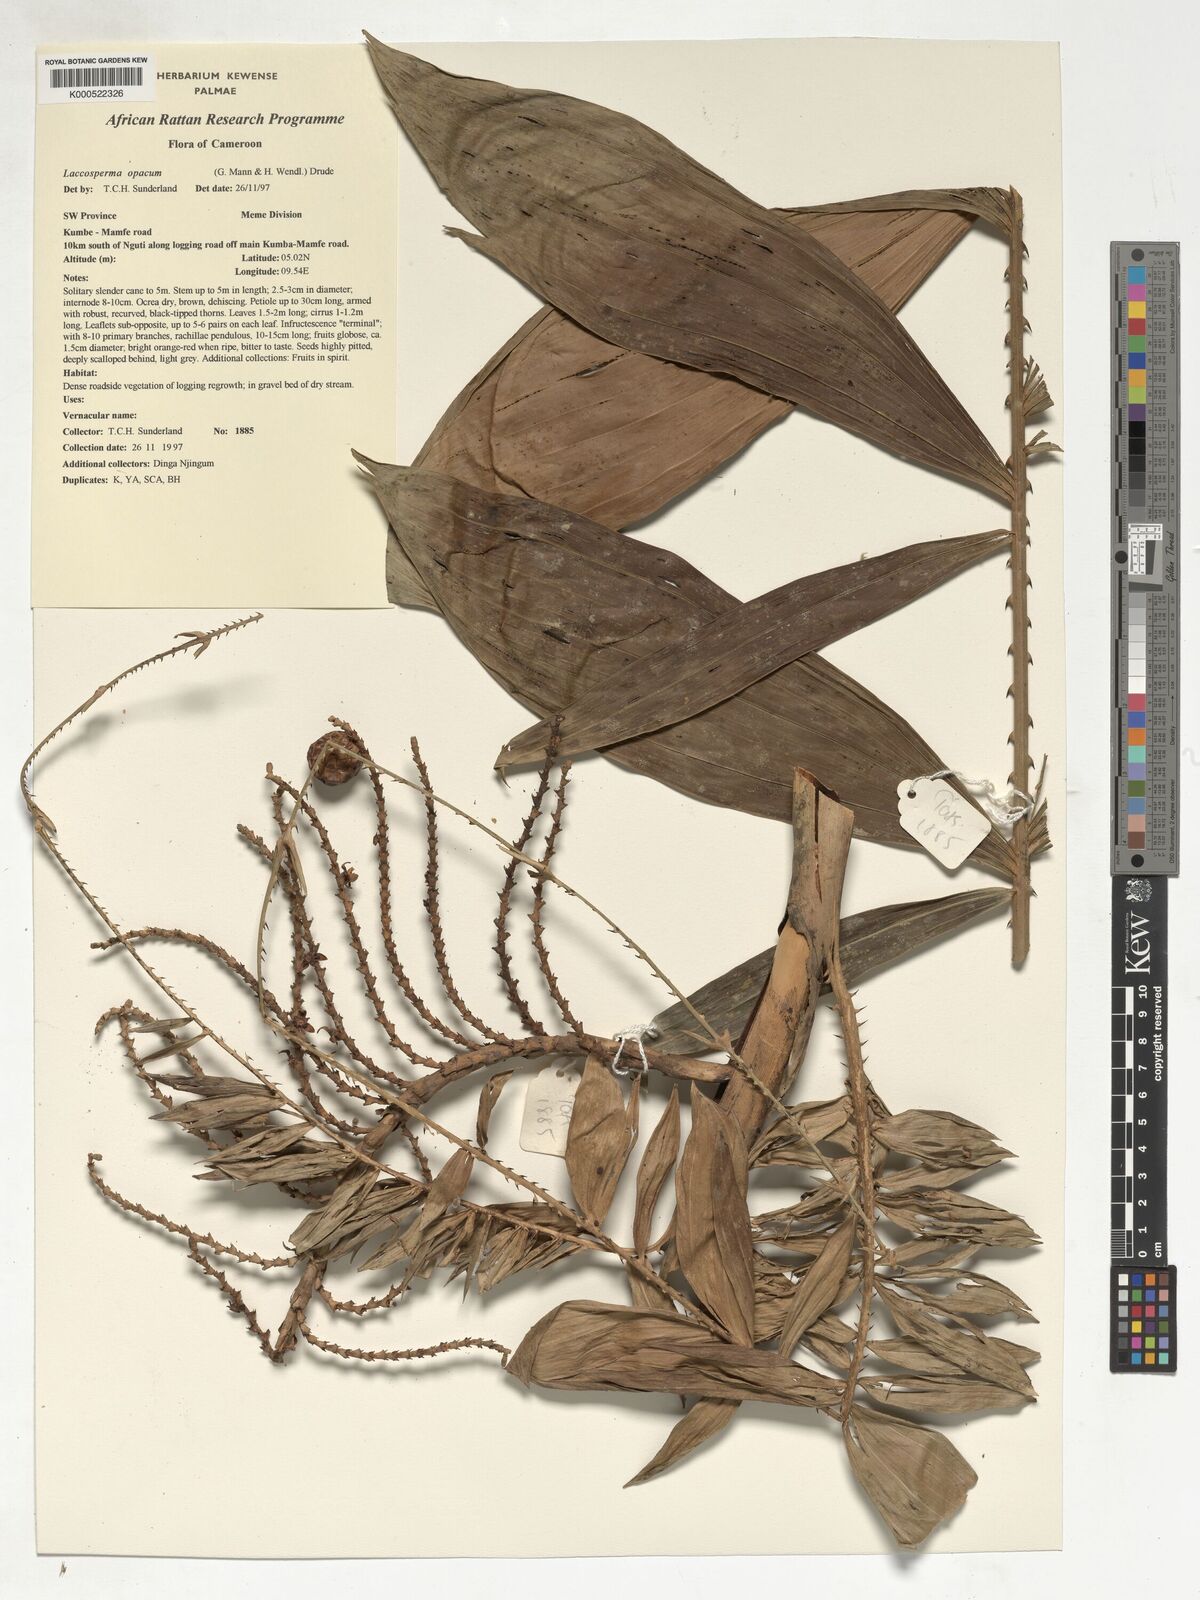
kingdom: Plantae
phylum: Tracheophyta
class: Liliopsida
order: Arecales
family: Arecaceae
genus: Laccosperma
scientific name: Laccosperma opacum
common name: Rattan
